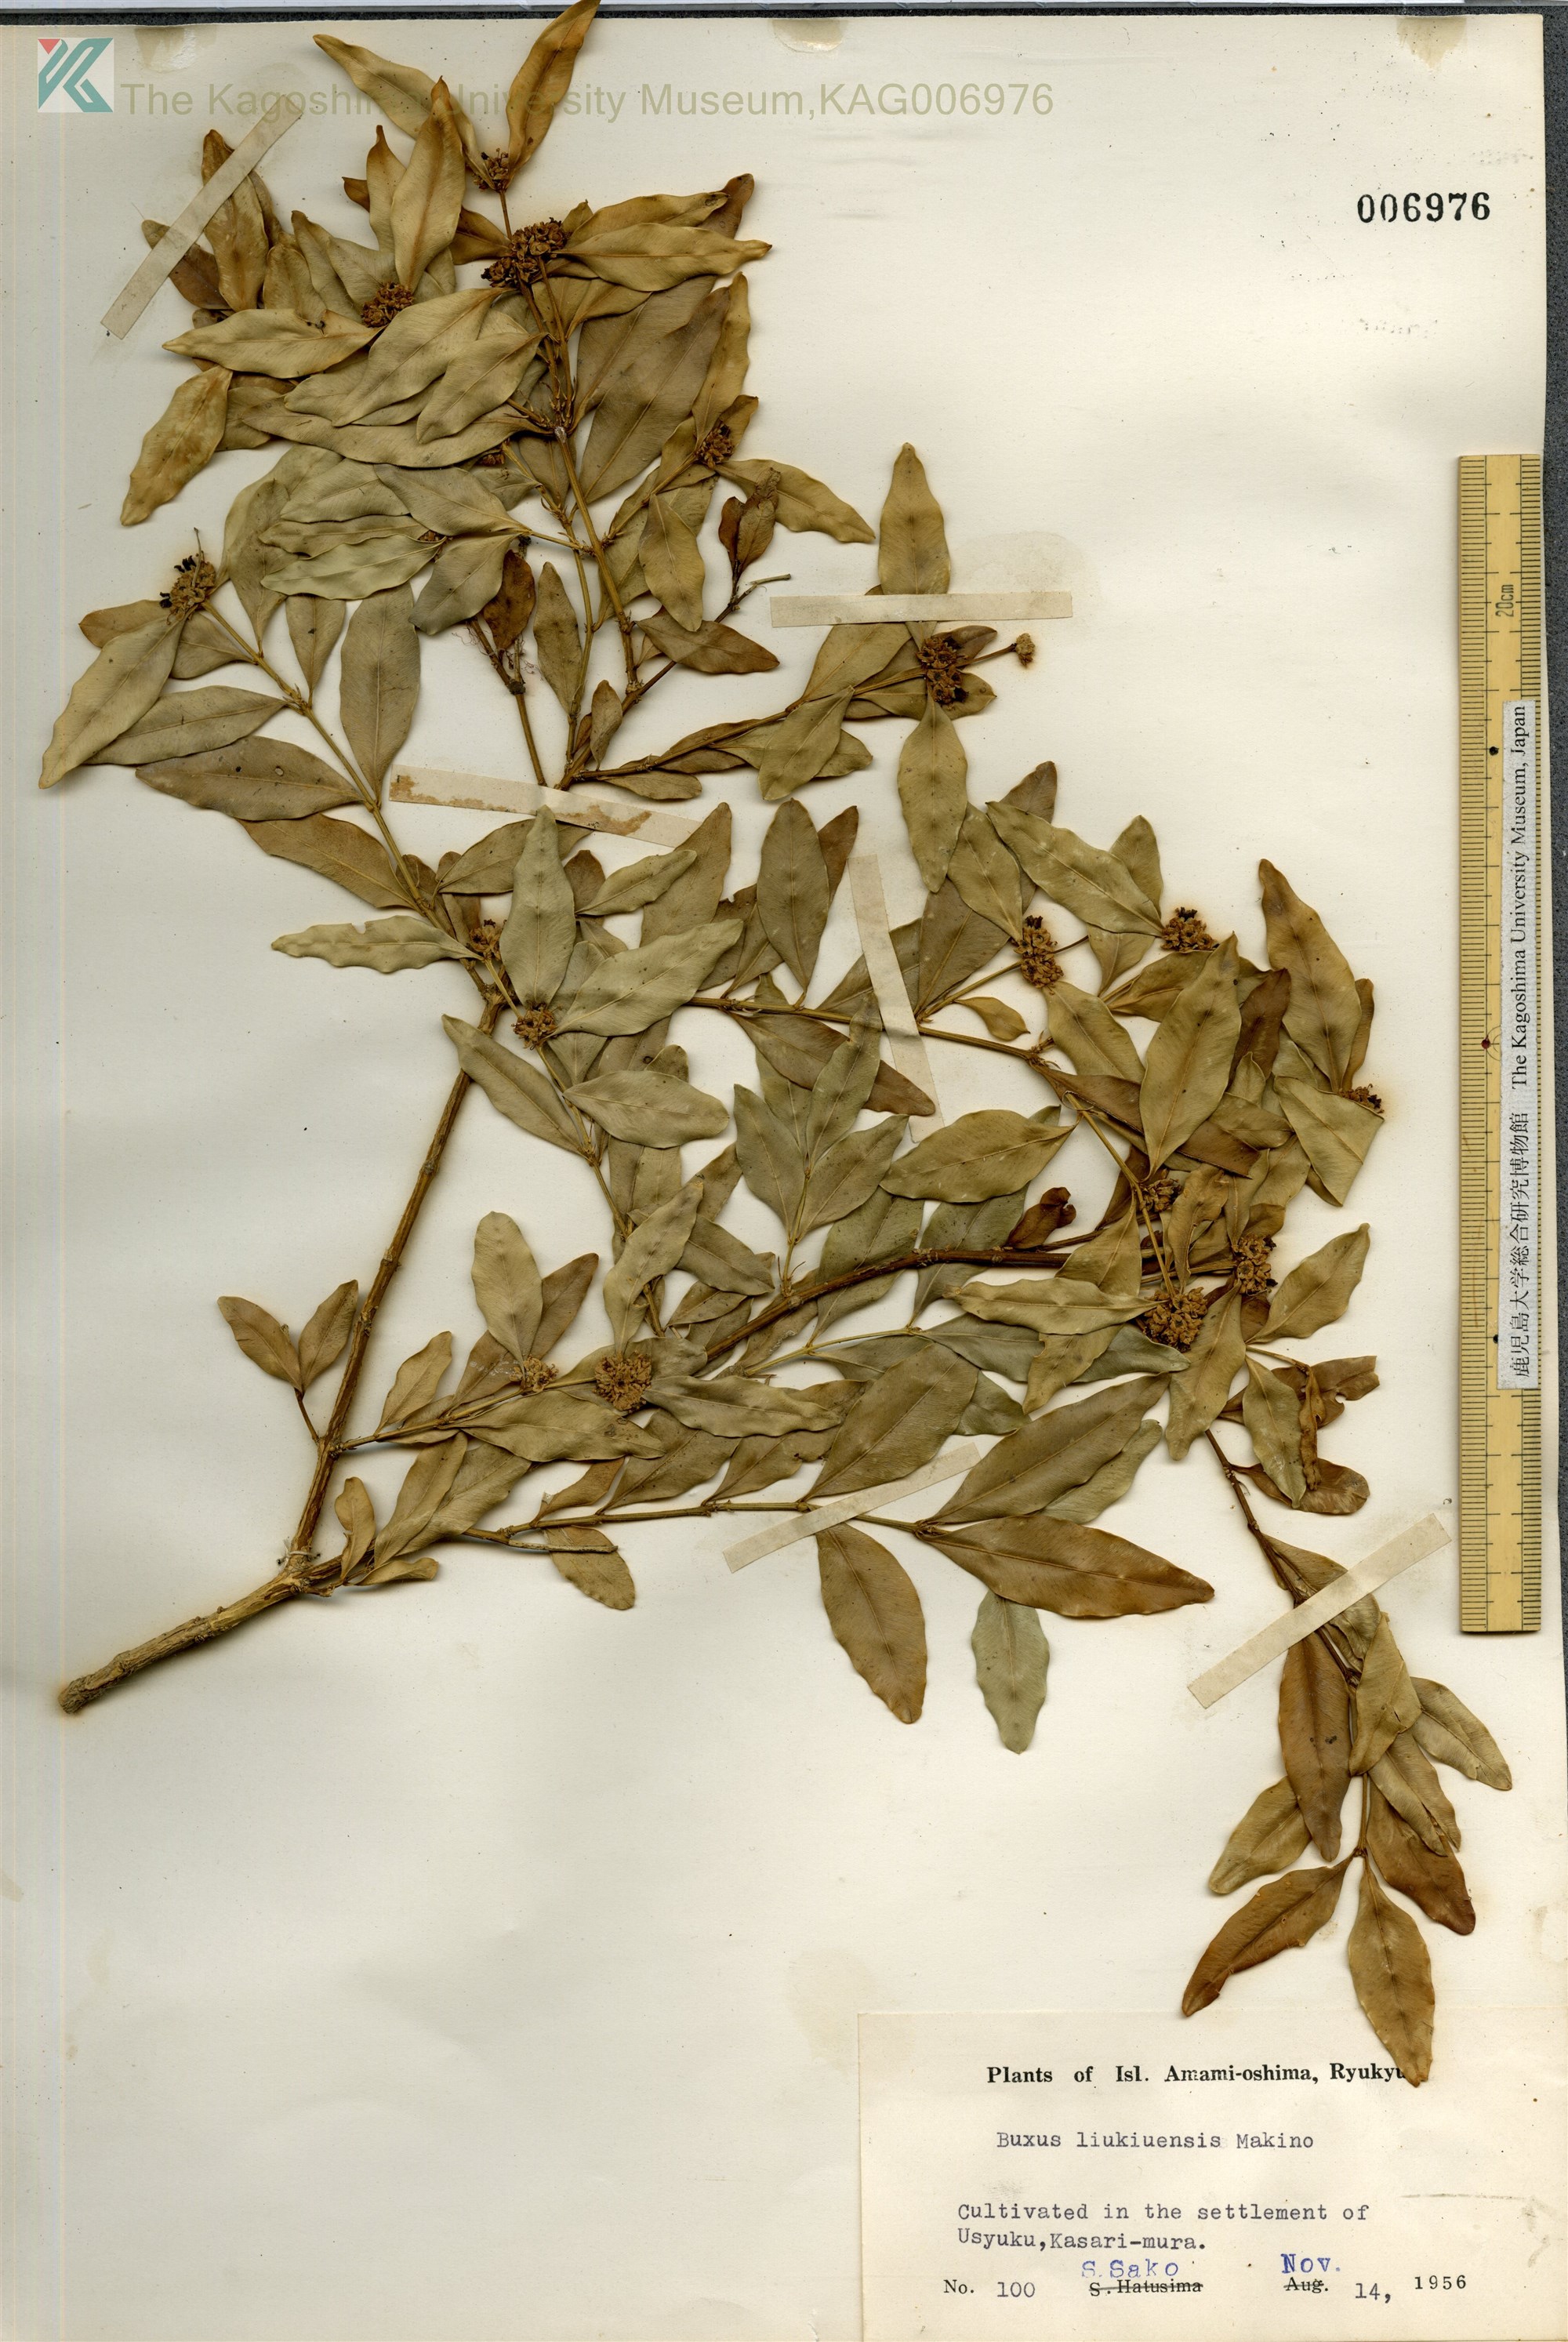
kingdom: Plantae
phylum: Tracheophyta
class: Magnoliopsida
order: Buxales
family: Buxaceae
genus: Buxus
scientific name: Buxus liukiuensis
